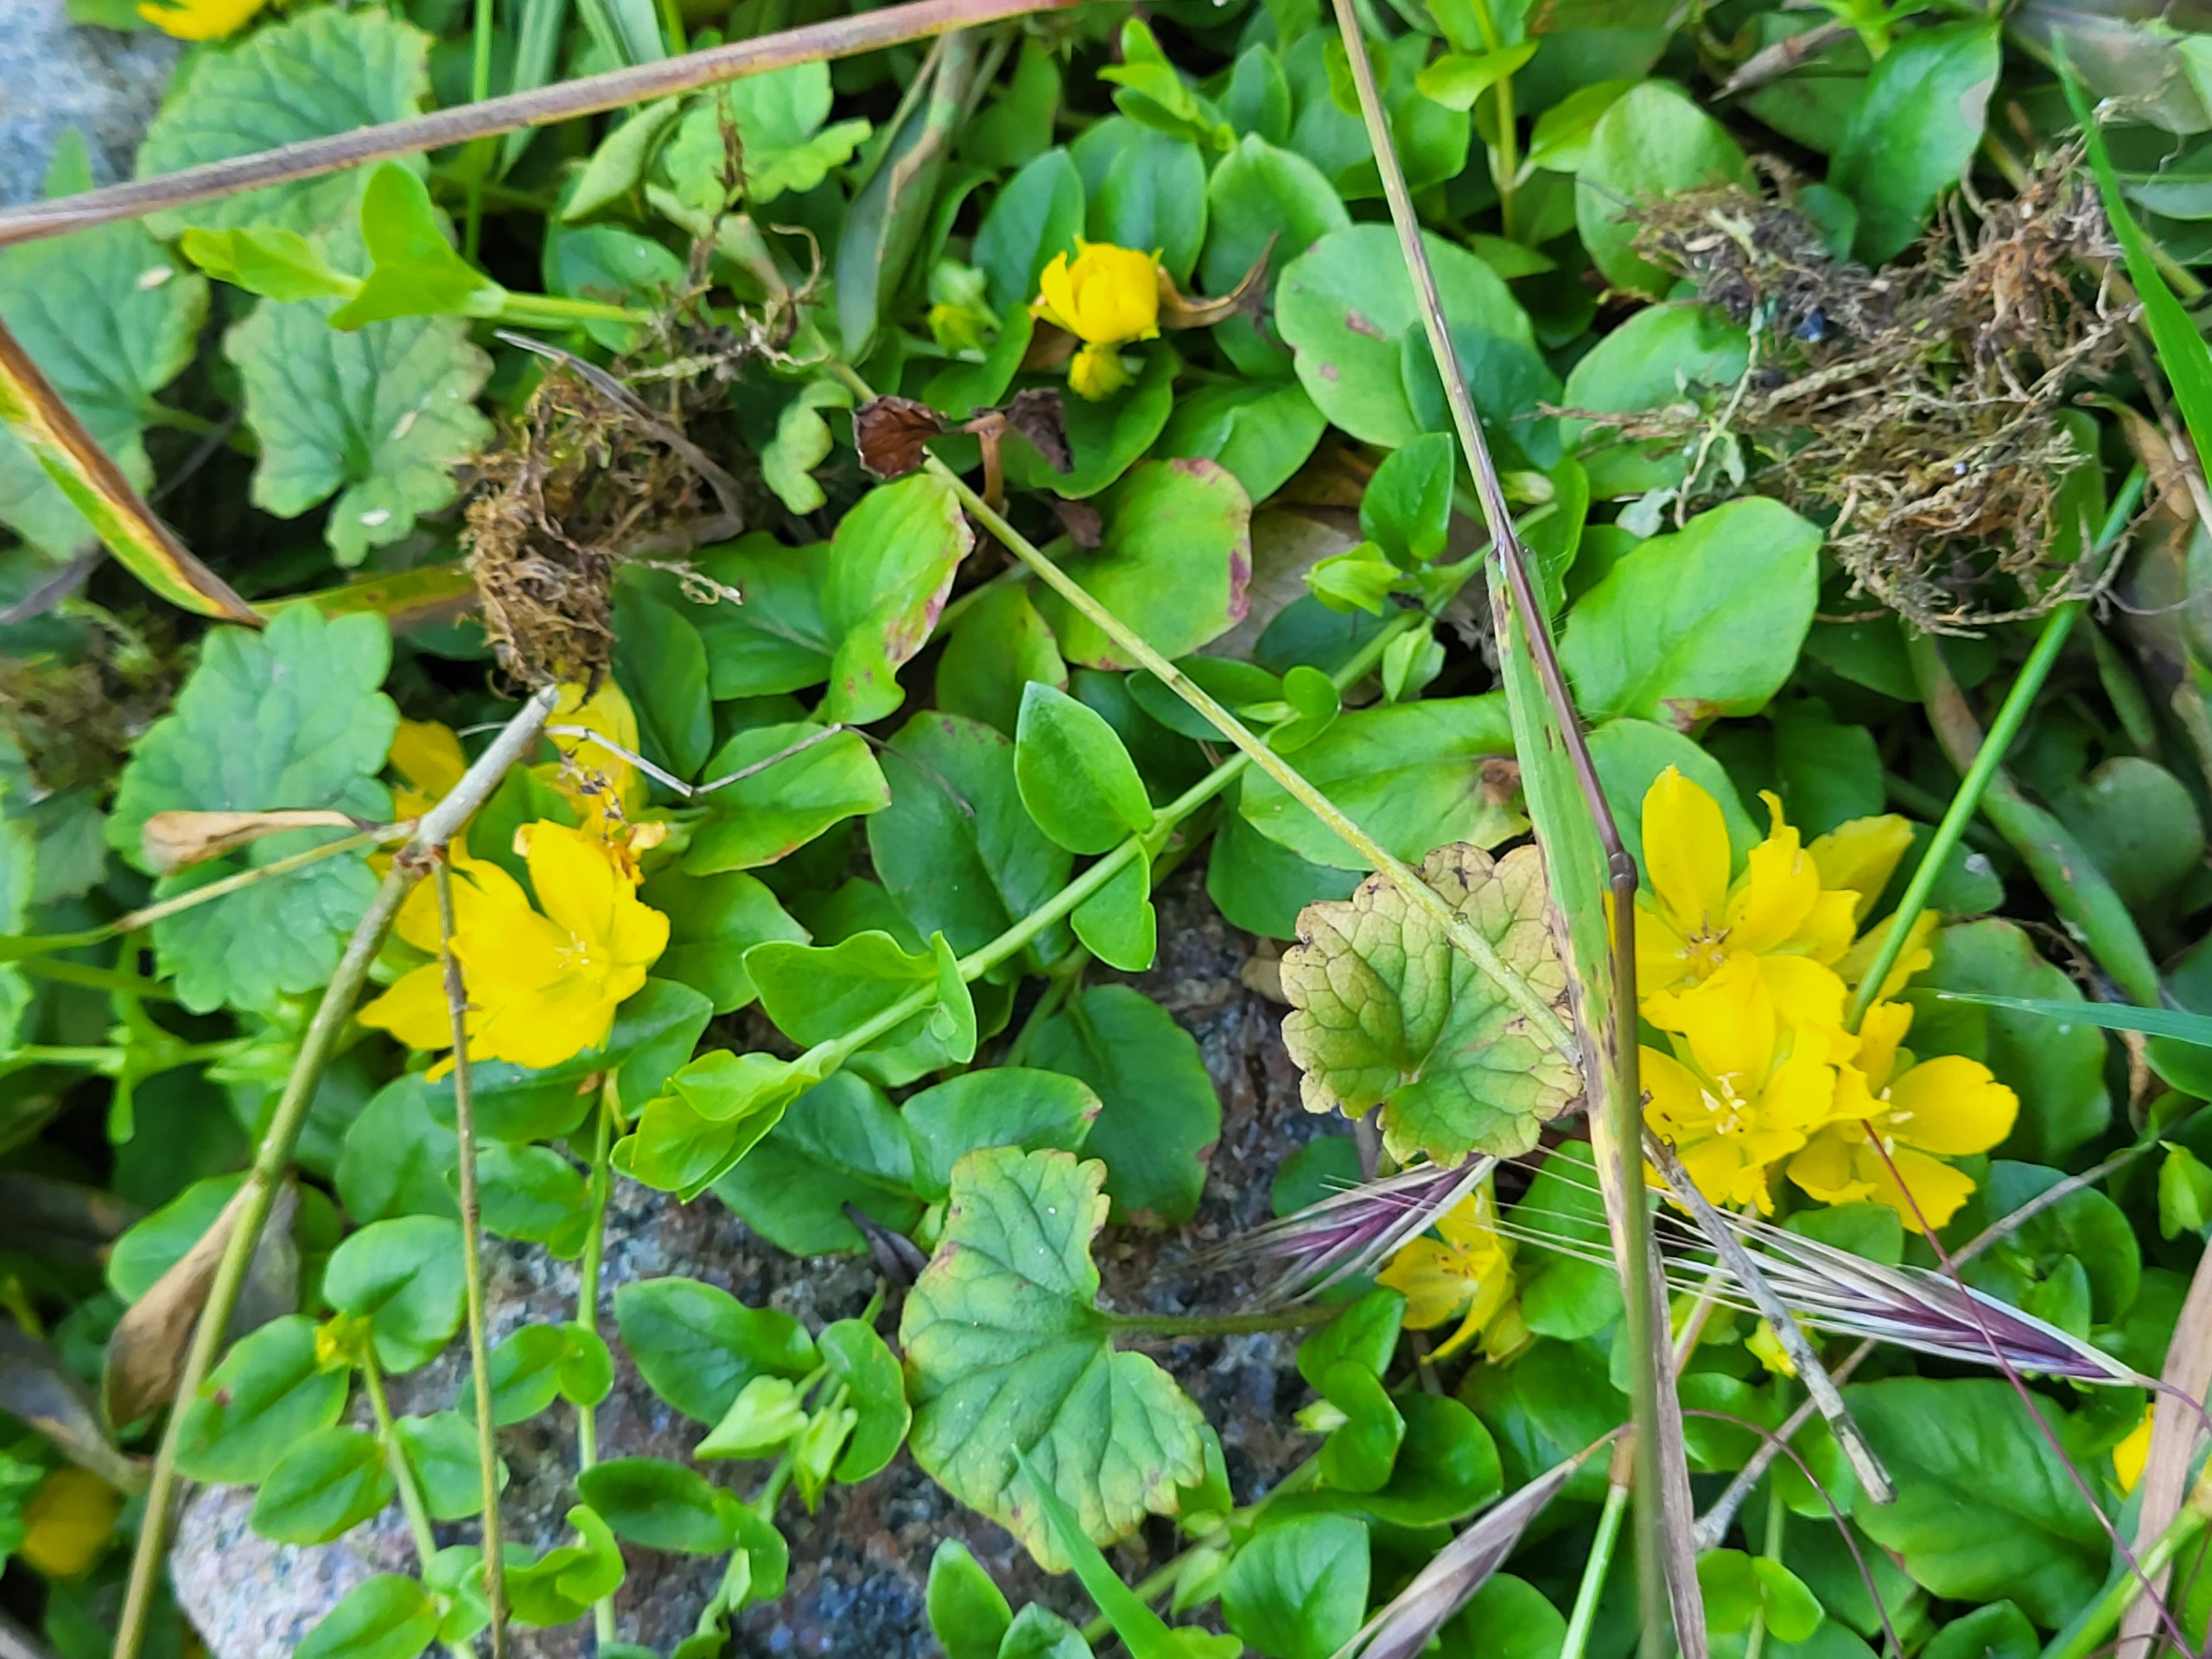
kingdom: Plantae
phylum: Tracheophyta
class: Magnoliopsida
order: Ericales
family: Primulaceae
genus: Lysimachia
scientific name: Lysimachia nummularia
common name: Pengebladet fredløs
